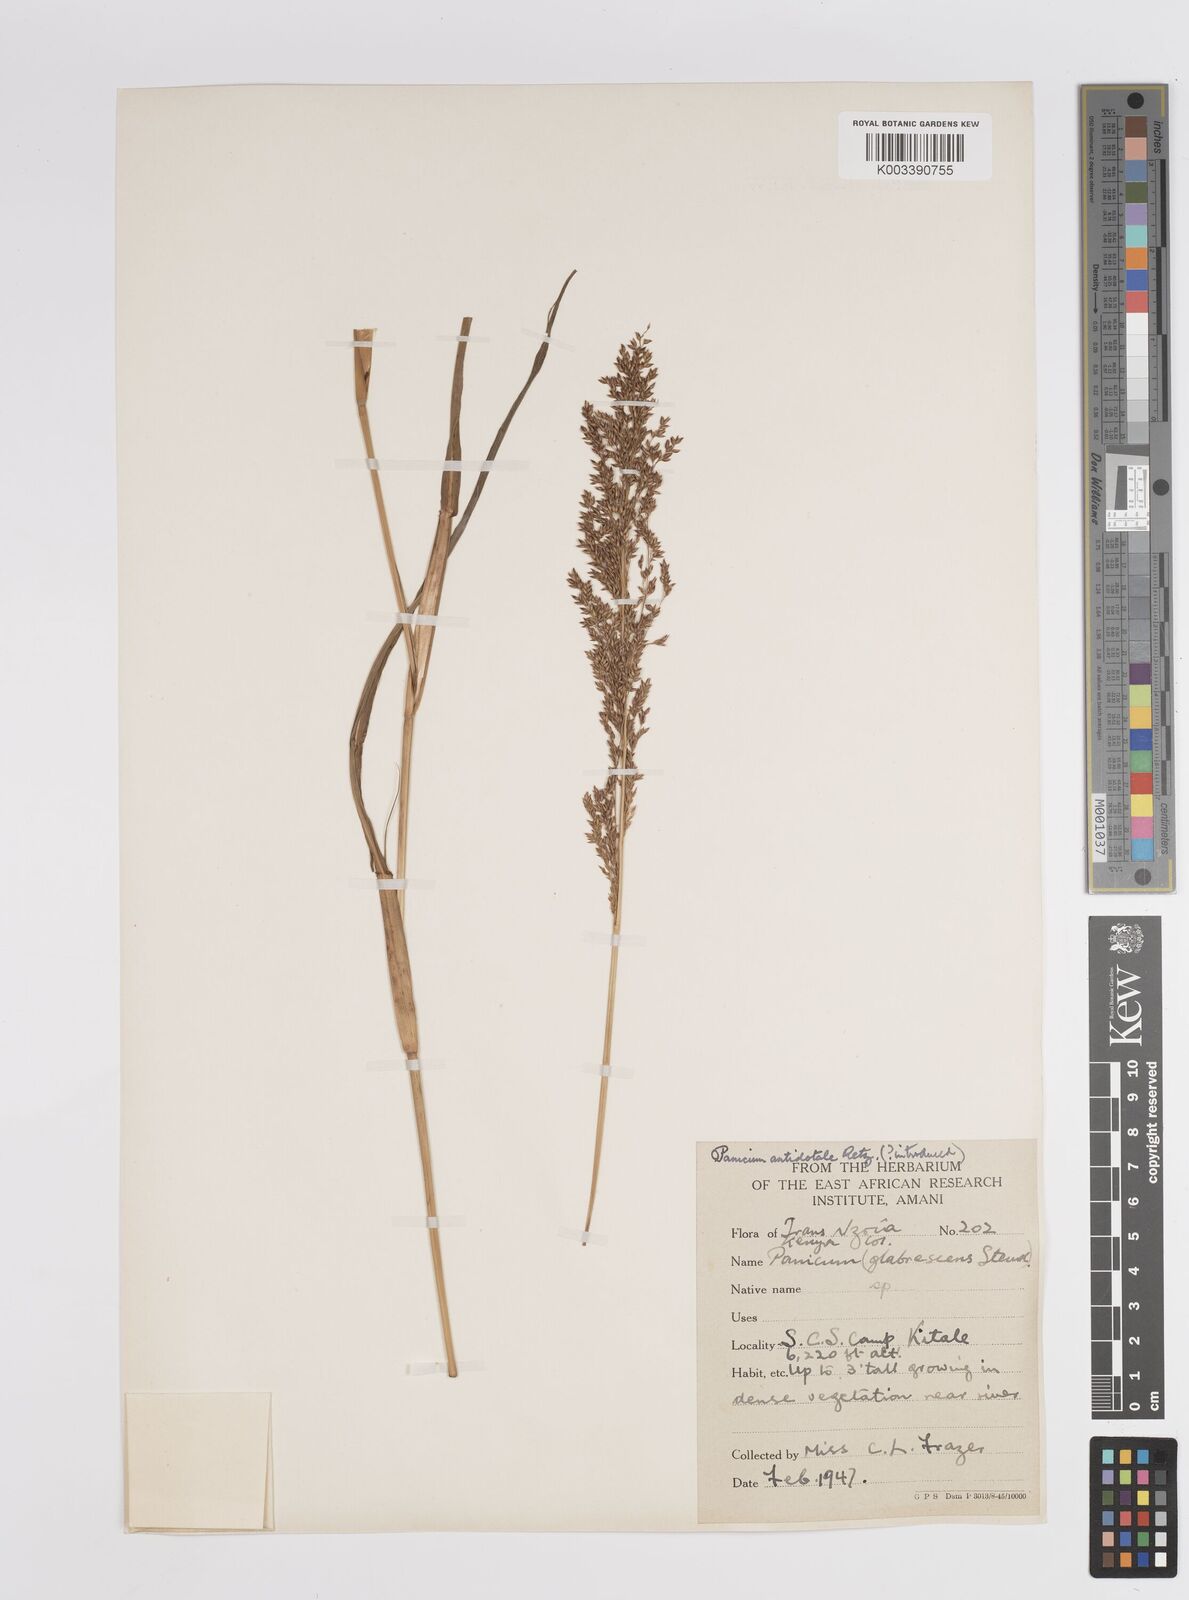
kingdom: Plantae
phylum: Tracheophyta
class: Liliopsida
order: Poales
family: Poaceae
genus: Panicum
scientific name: Panicum antidotale
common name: Blue panicum
